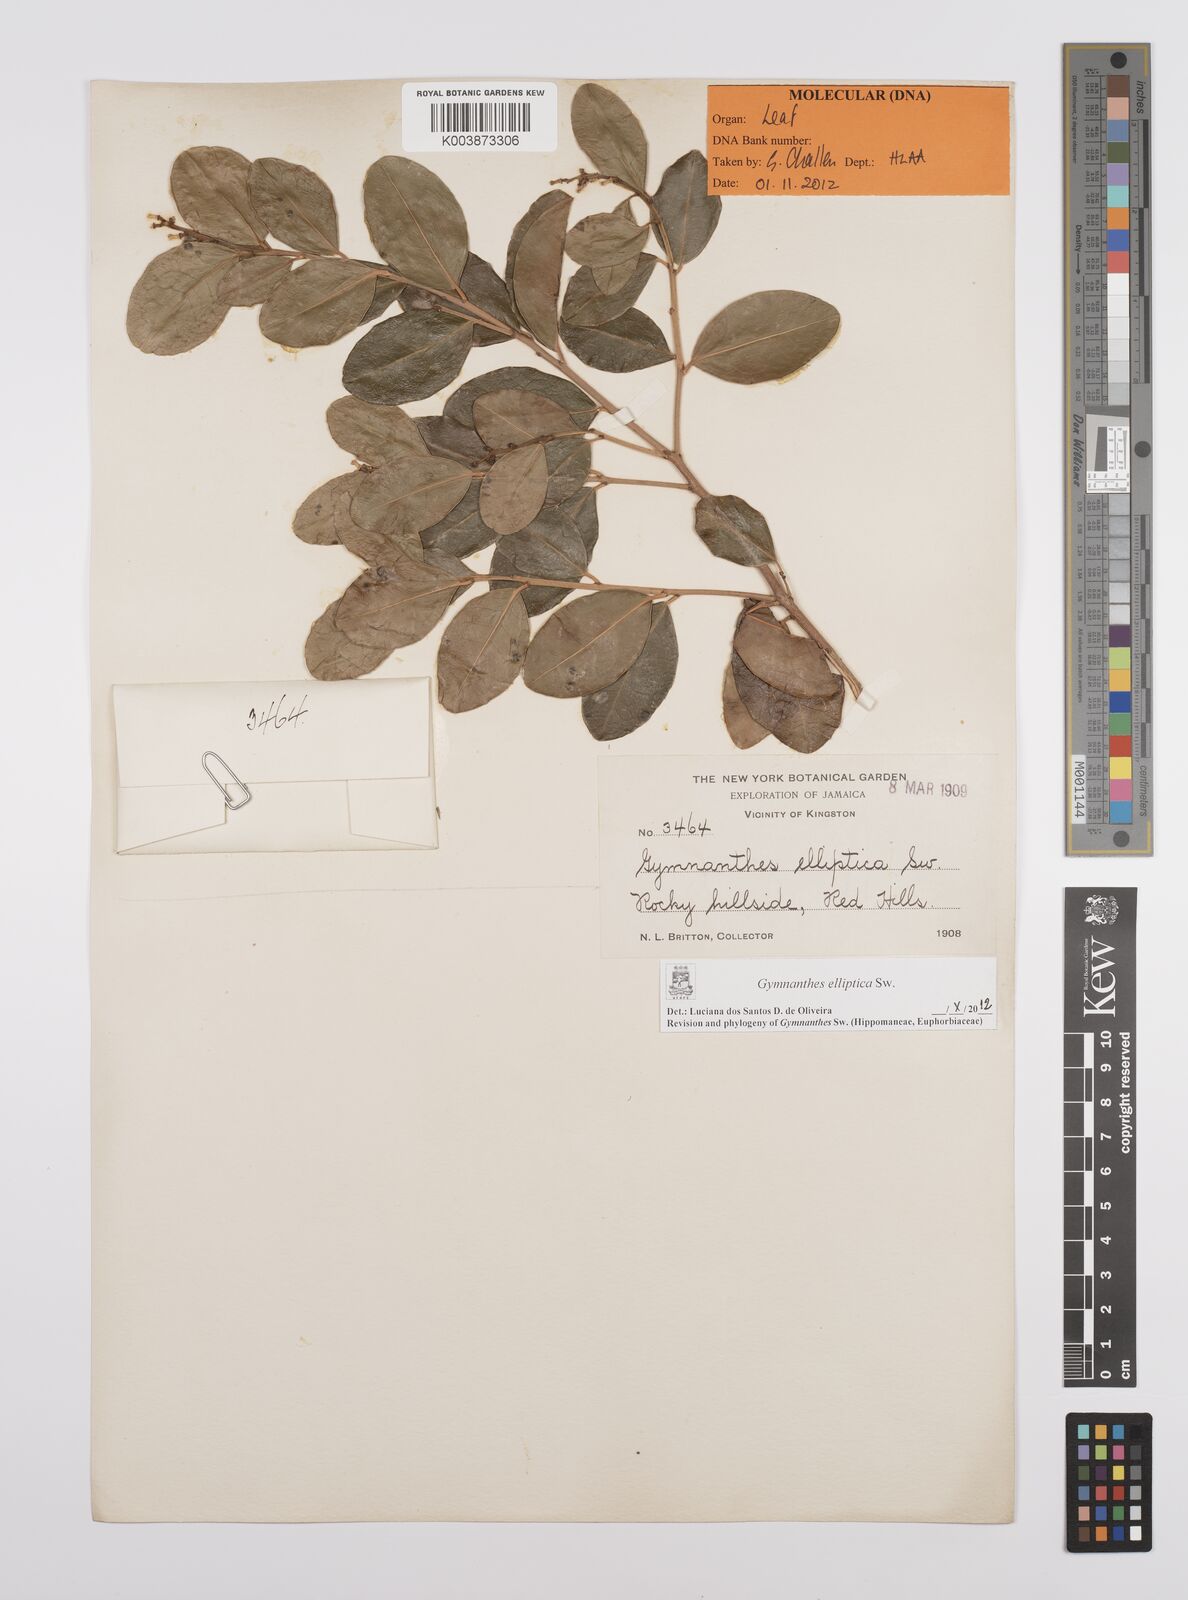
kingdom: Plantae
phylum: Tracheophyta
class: Magnoliopsida
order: Malpighiales
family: Euphorbiaceae
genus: Dendrocousinsia
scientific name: Dendrocousinsia elliptica
